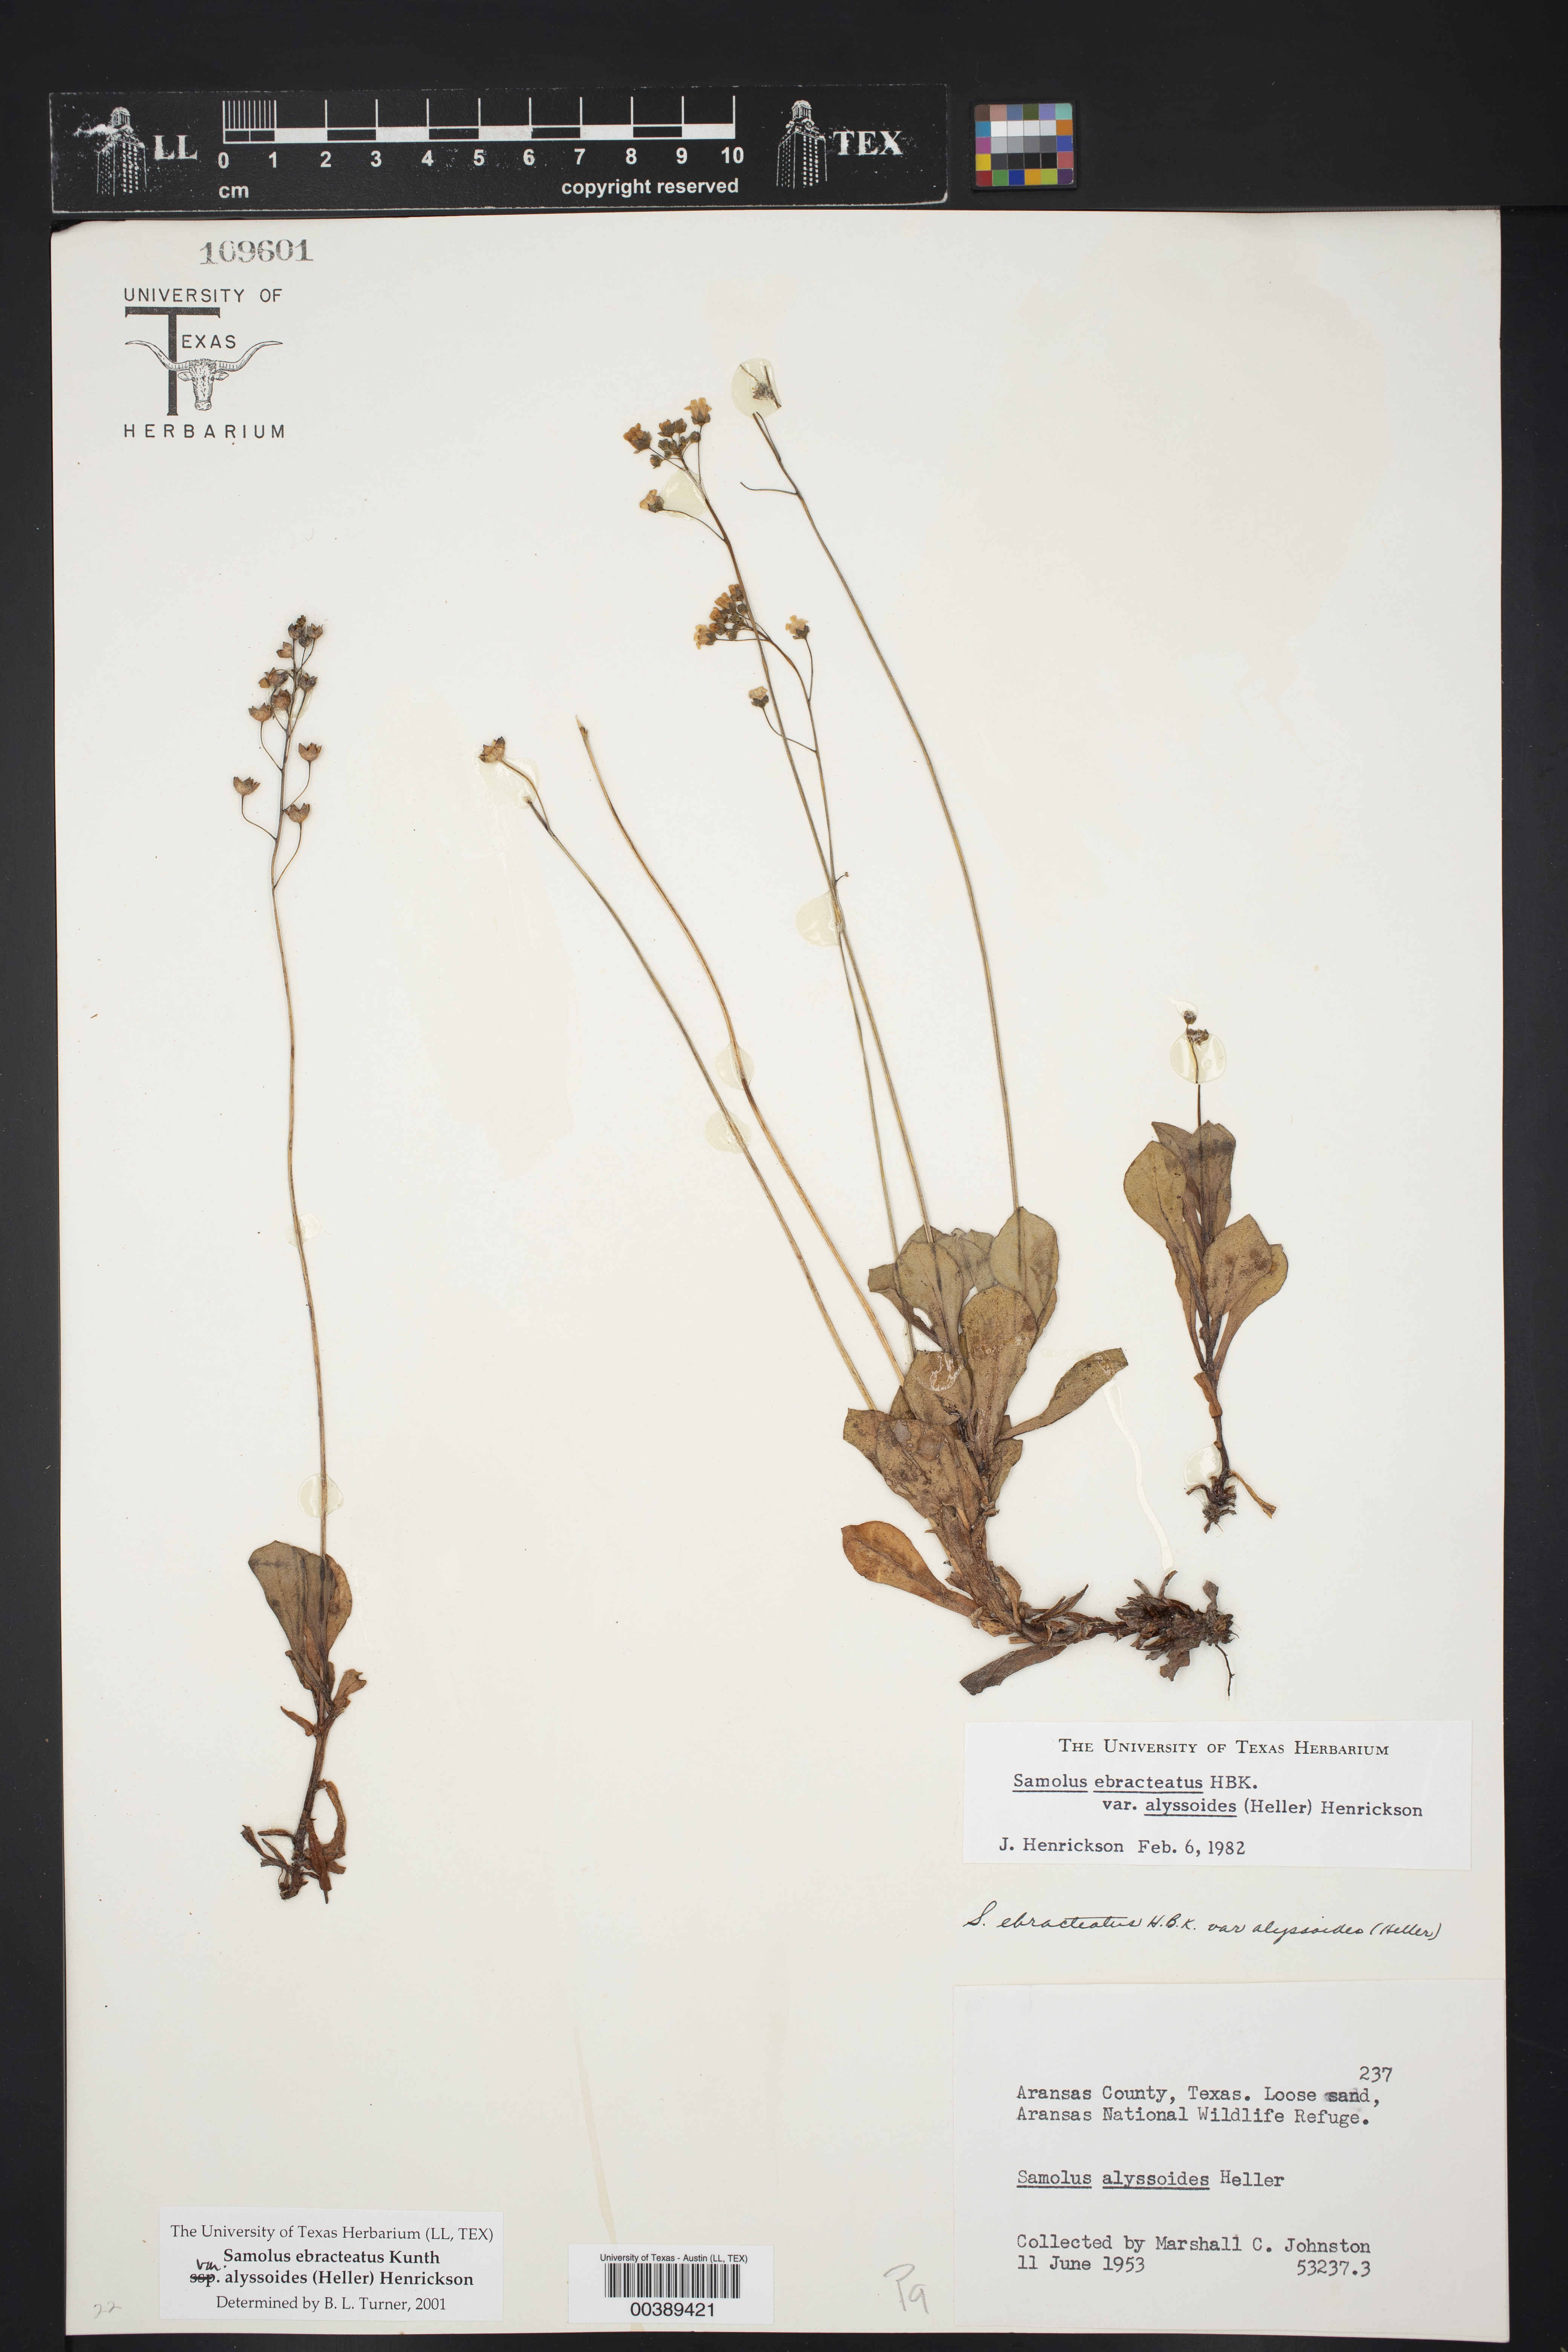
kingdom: Plantae
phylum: Tracheophyta
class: Magnoliopsida
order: Ericales
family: Primulaceae
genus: Samolus
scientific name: Samolus ebracteatus
